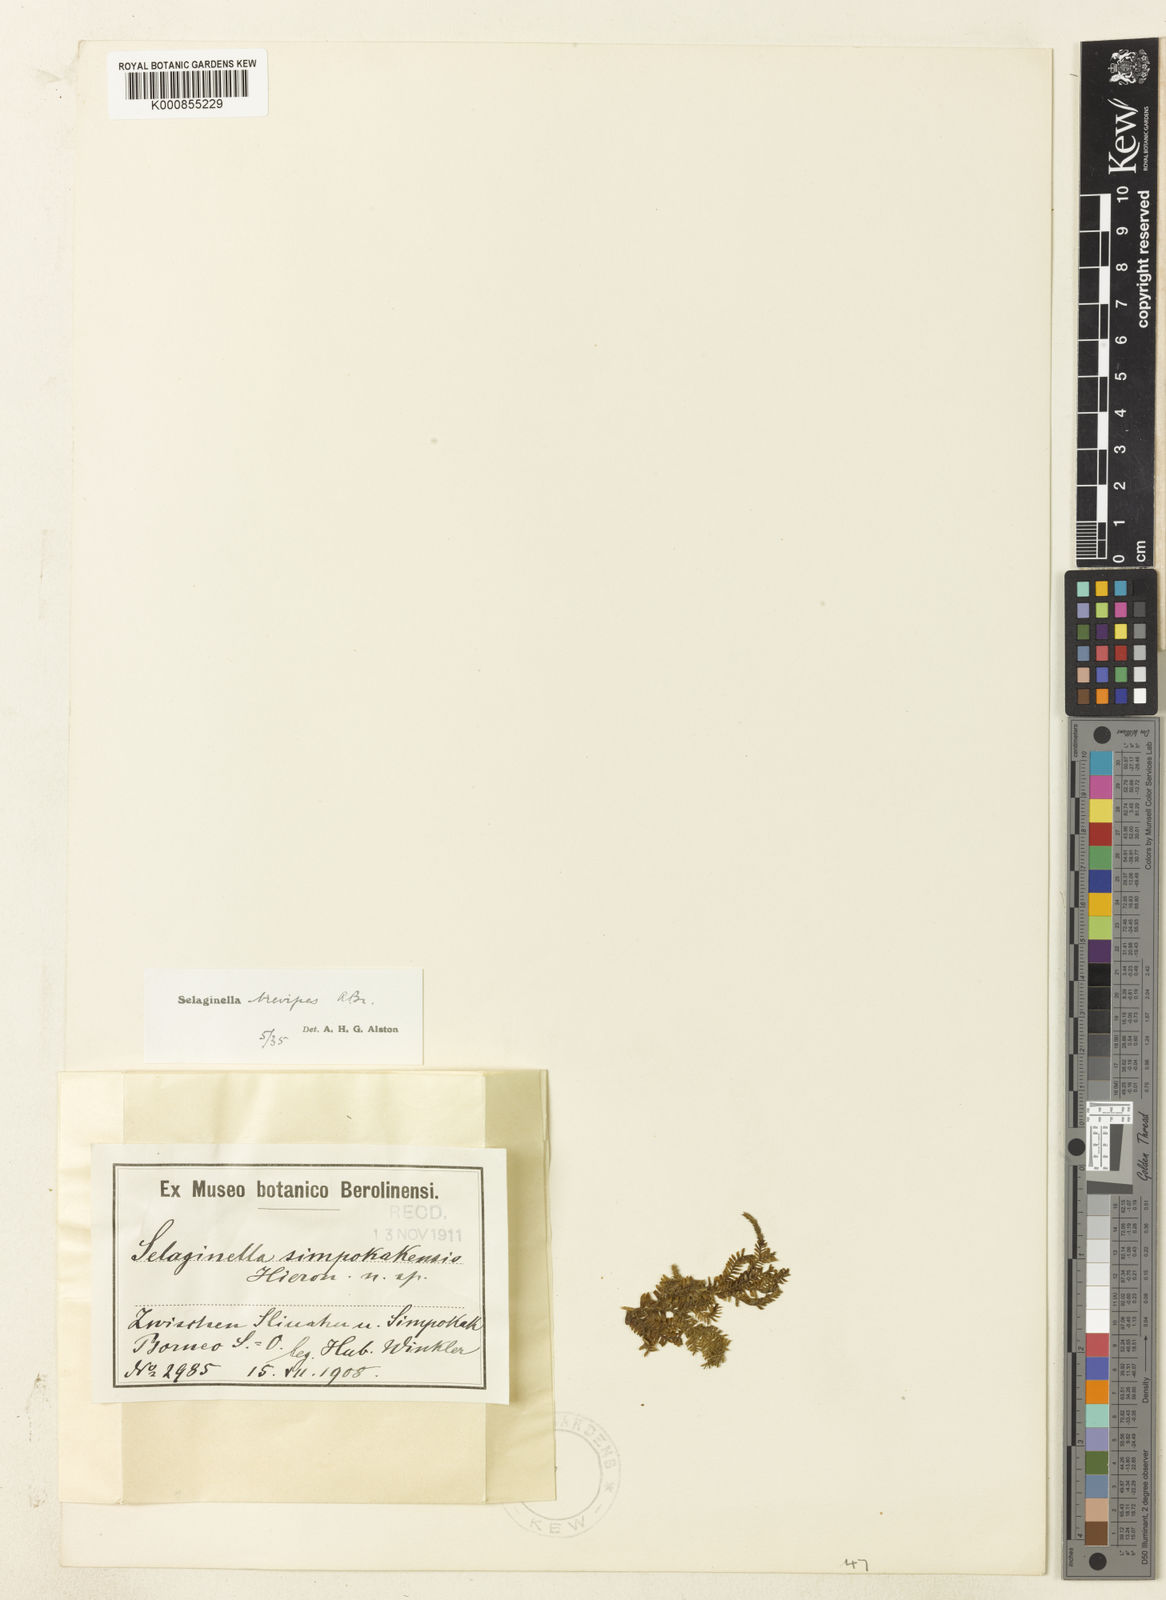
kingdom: Plantae
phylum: Tracheophyta
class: Lycopodiopsida
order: Selaginellales
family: Selaginellaceae
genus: Selaginella
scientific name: Selaginella
